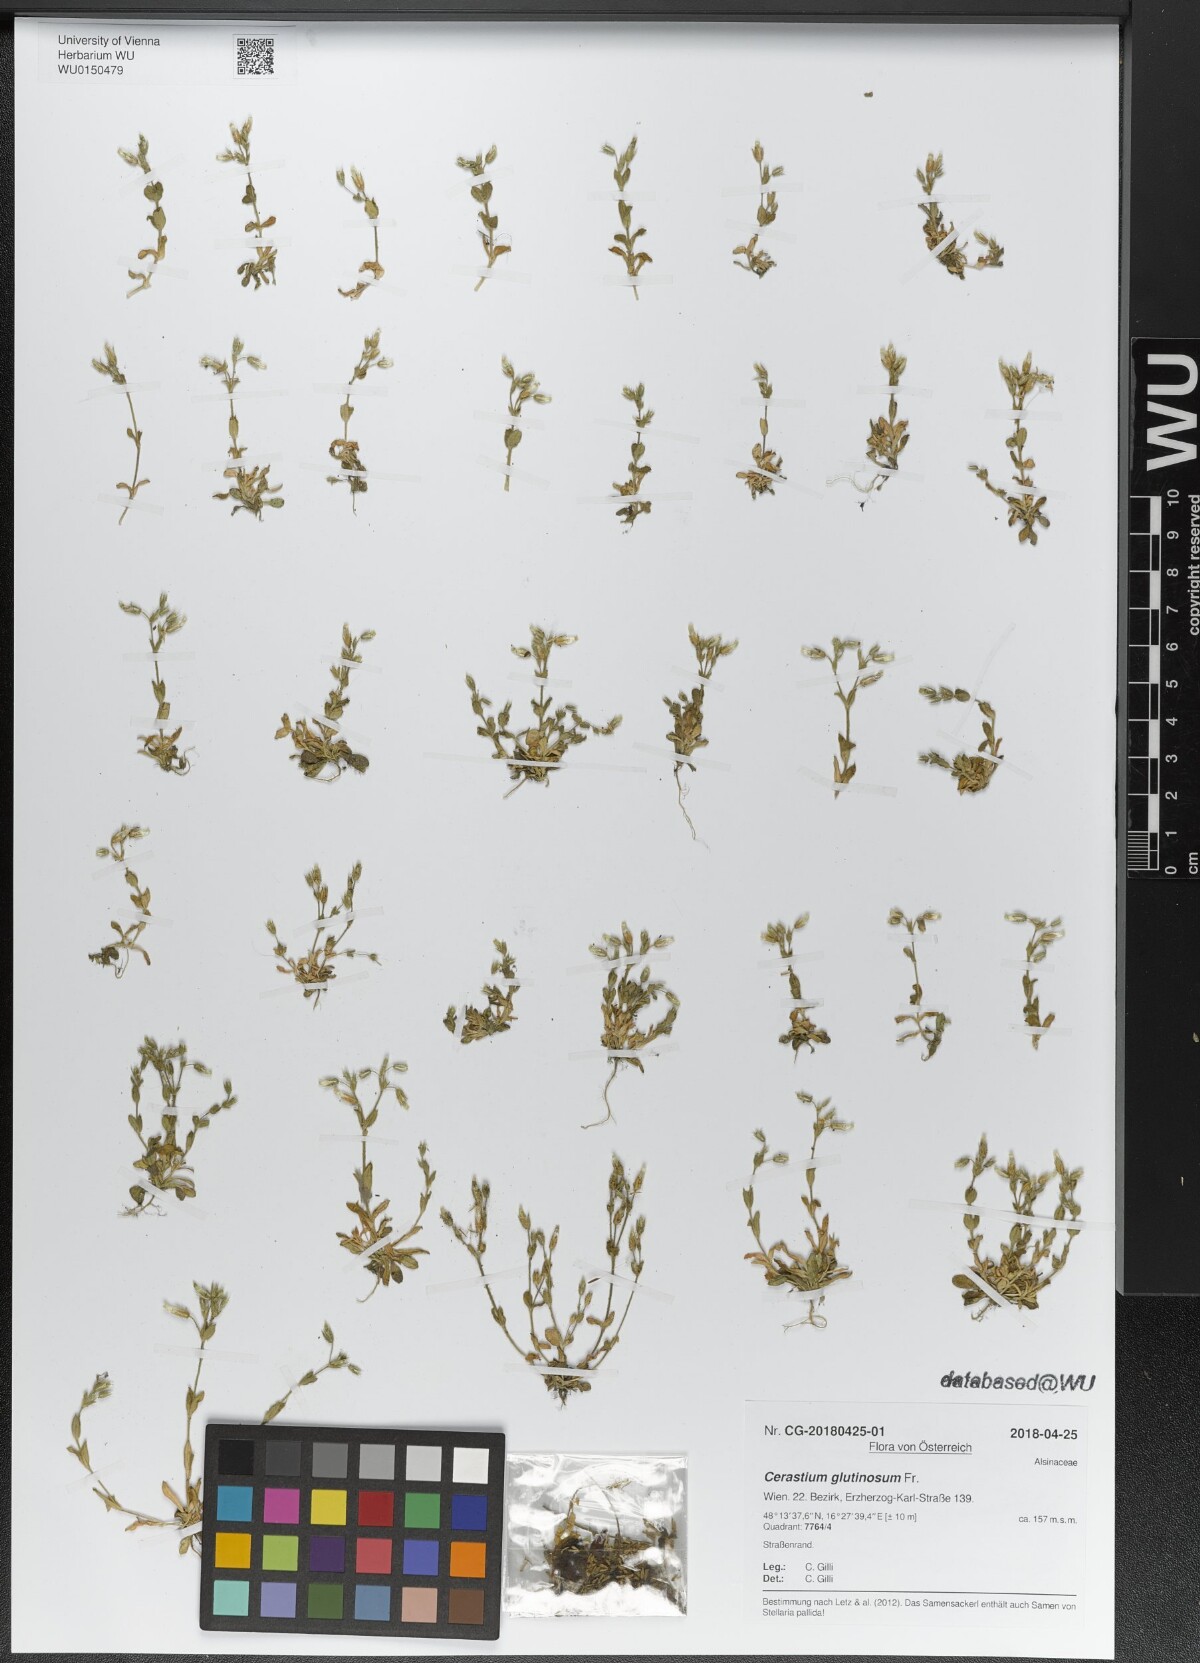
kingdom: Plantae
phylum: Tracheophyta
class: Magnoliopsida
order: Caryophyllales
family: Caryophyllaceae
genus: Cerastium
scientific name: Cerastium glutinosum
